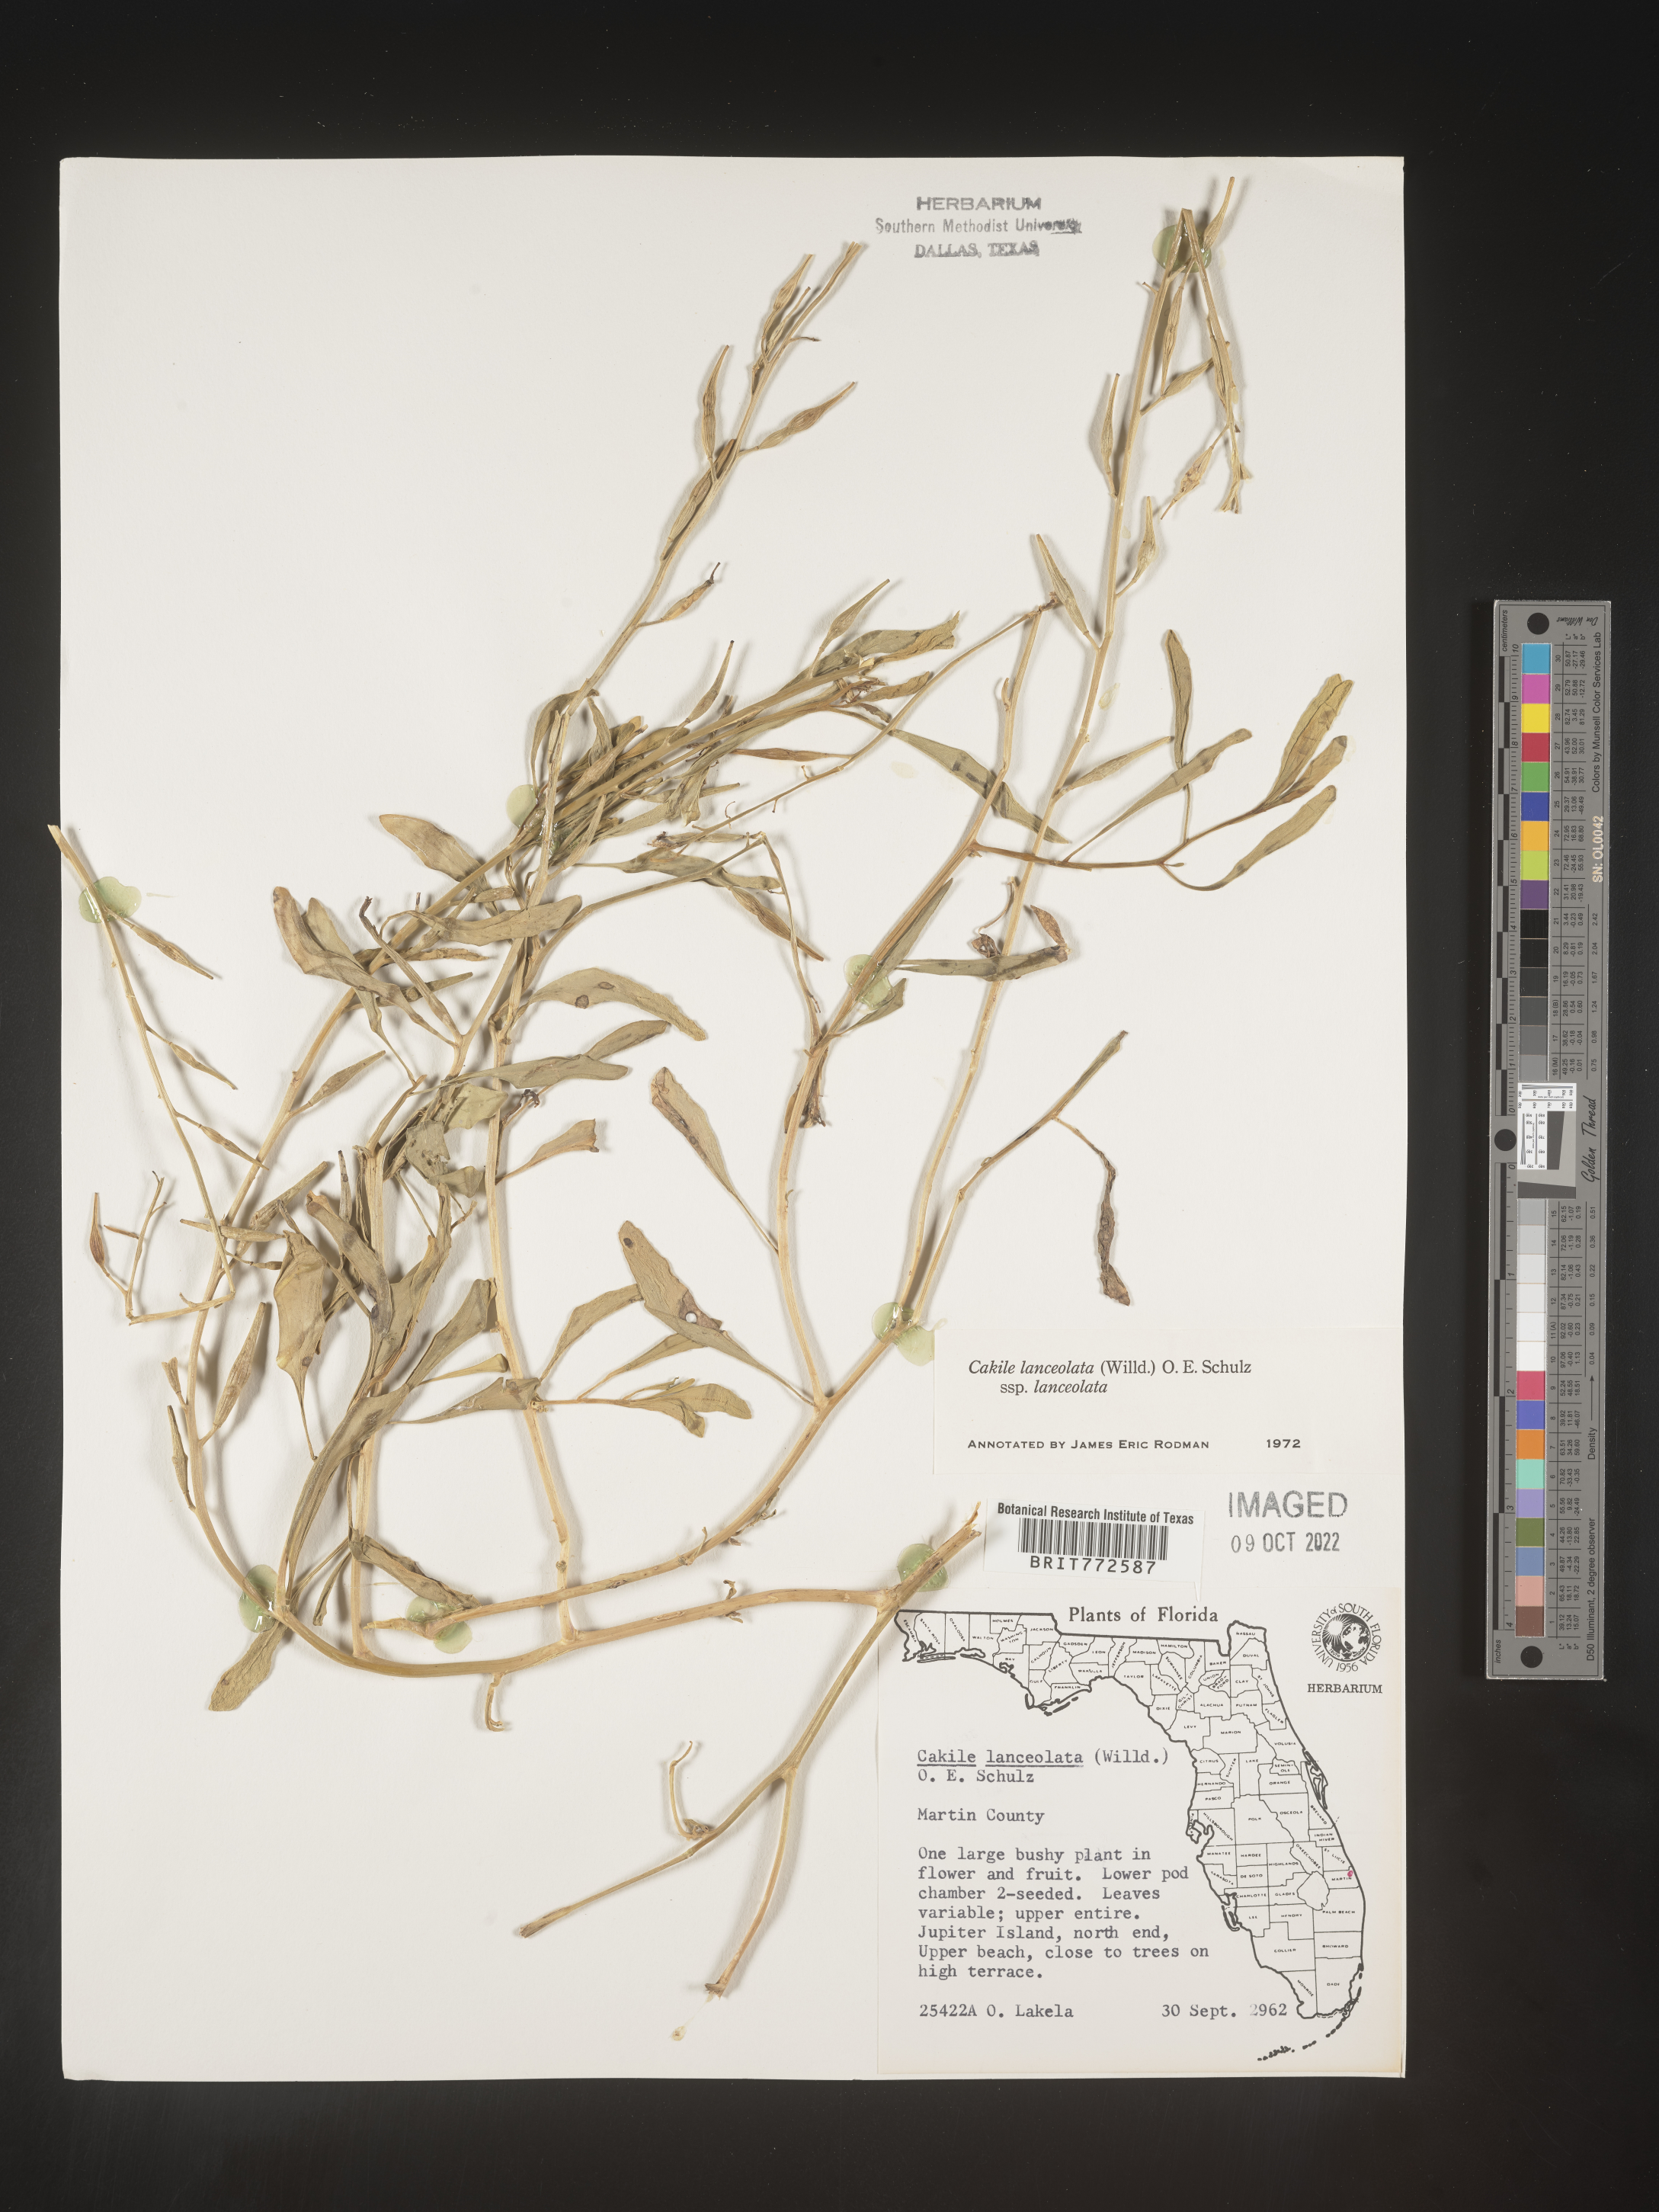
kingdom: Plantae
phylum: Tracheophyta
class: Magnoliopsida
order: Brassicales
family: Brassicaceae
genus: Cakile
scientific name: Cakile lanceolata
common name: Sea rocket
